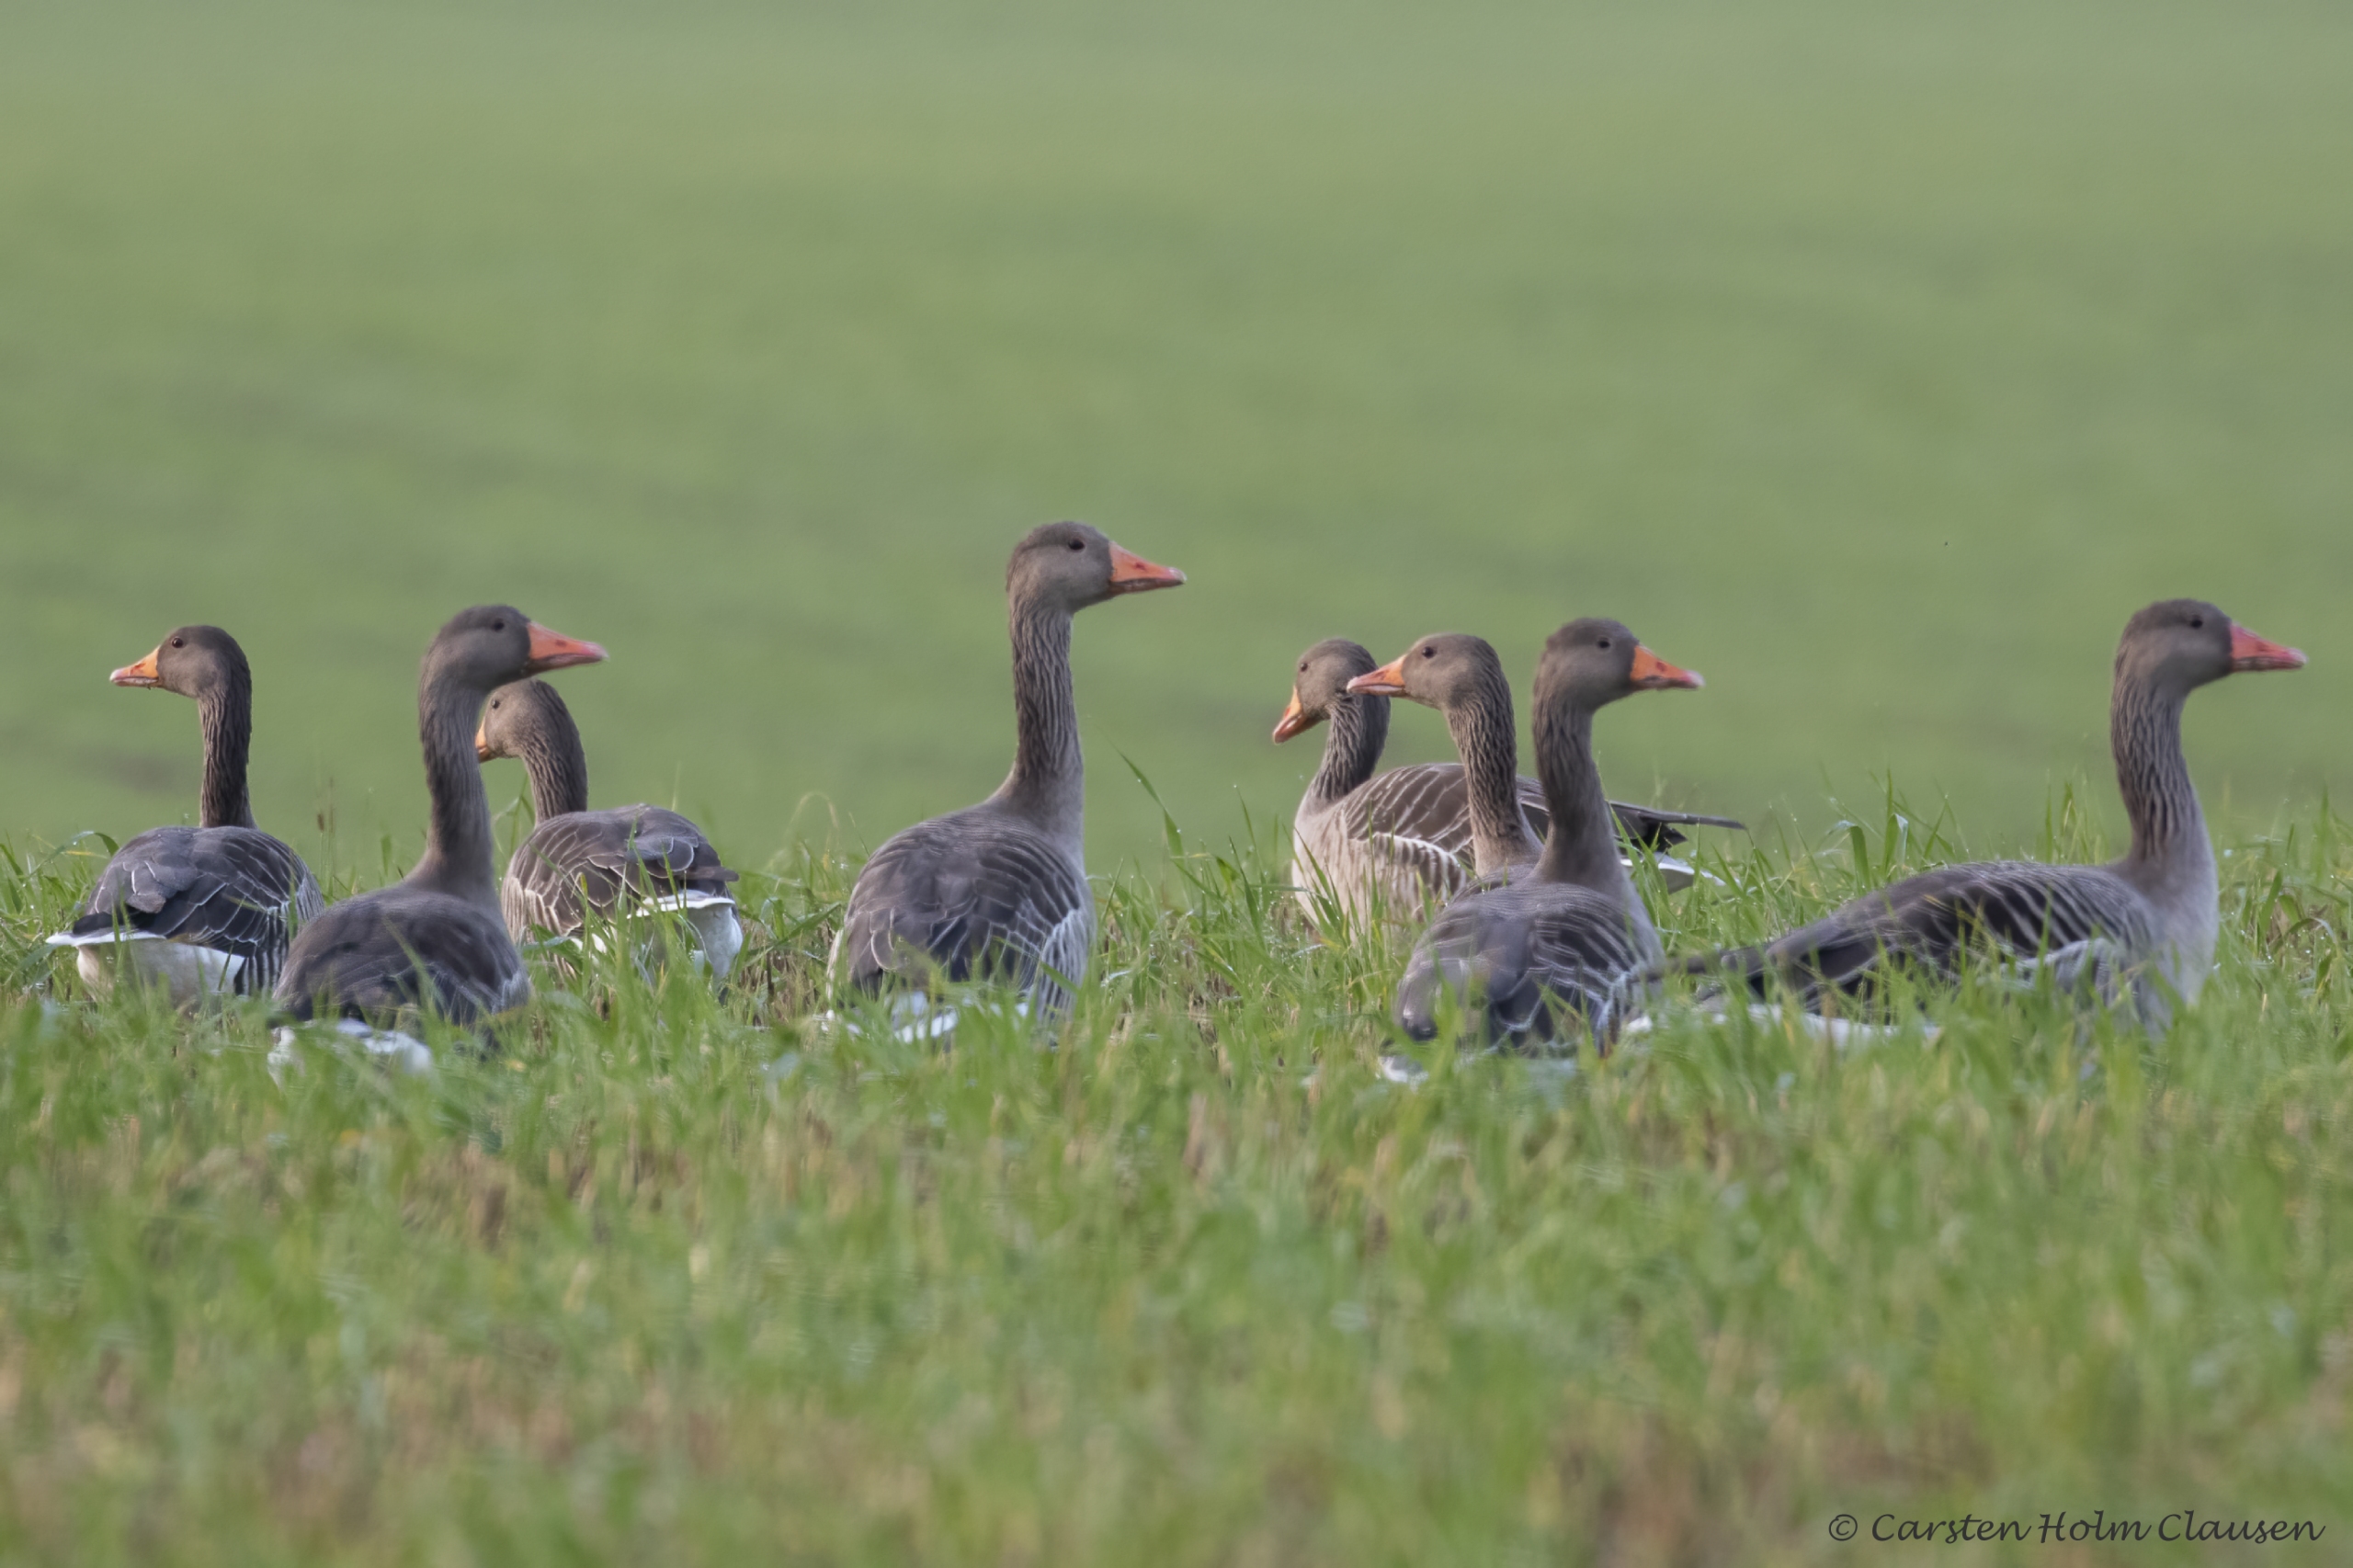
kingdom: Animalia
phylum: Chordata
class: Aves
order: Anseriformes
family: Anatidae
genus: Anser
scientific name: Anser anser
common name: Grågås
